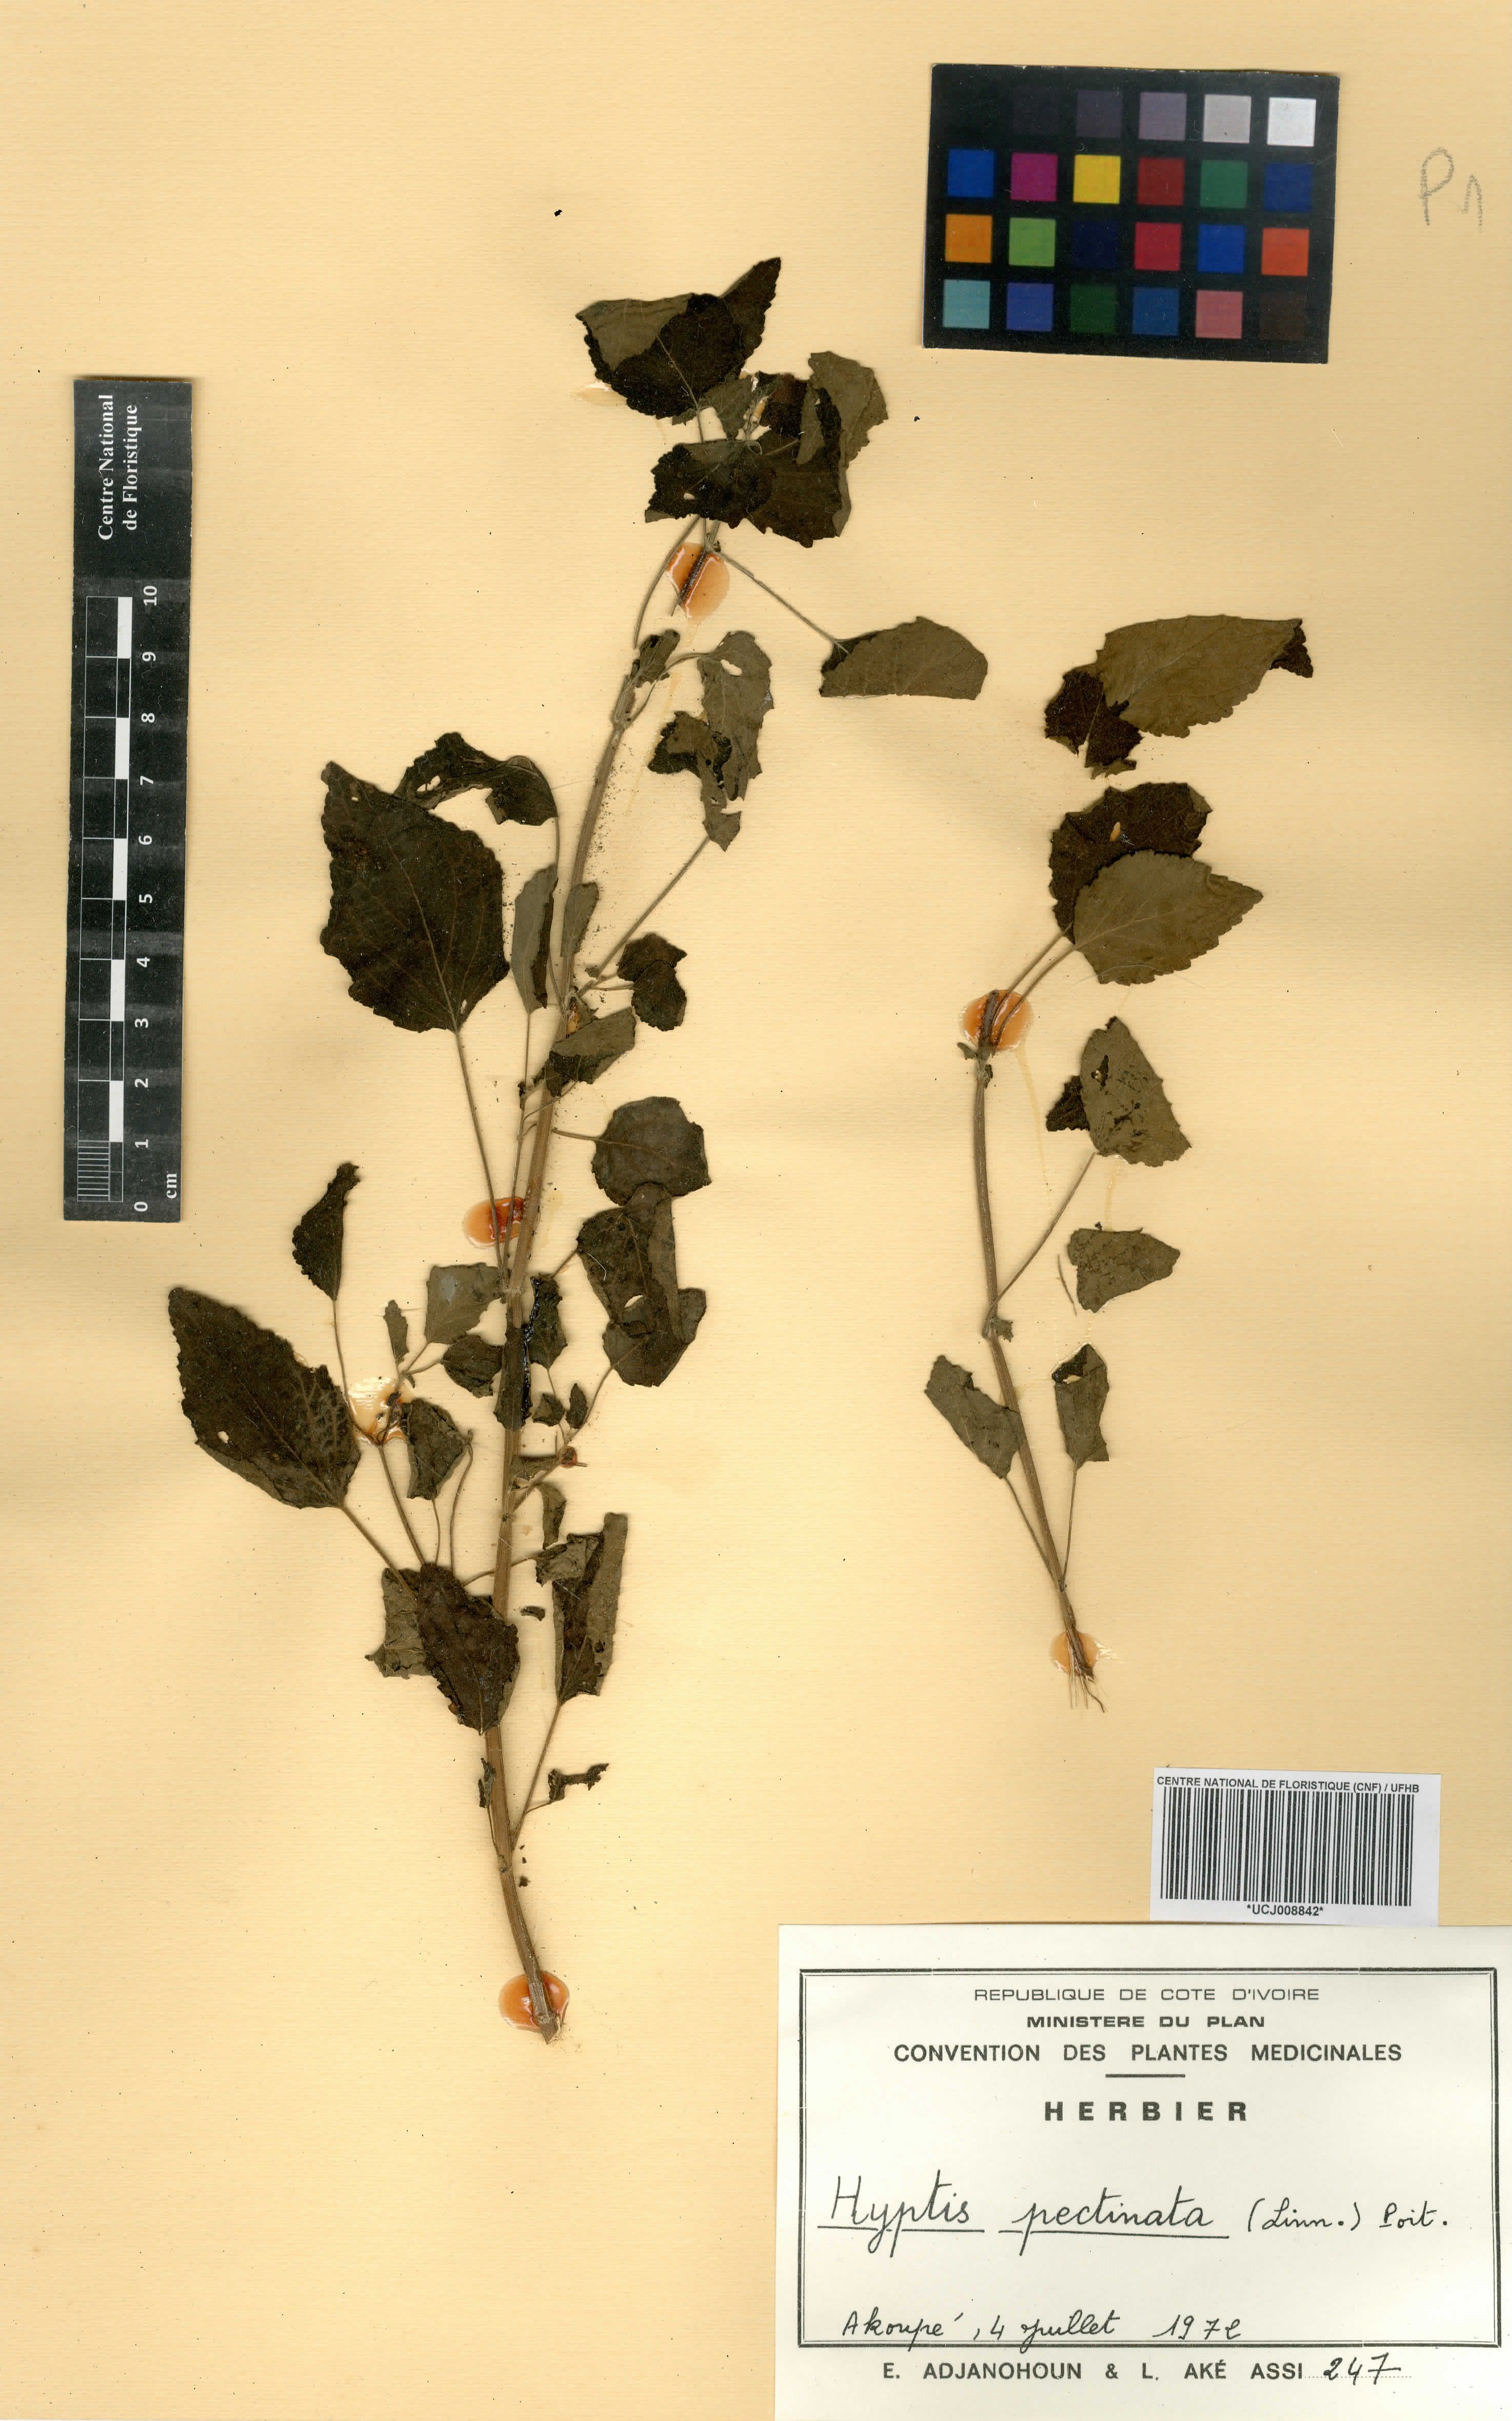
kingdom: Plantae
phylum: Tracheophyta
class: Magnoliopsida
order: Lamiales
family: Lamiaceae
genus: Mesosphaerum
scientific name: Mesosphaerum pectinatum
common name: Comb hyptis
